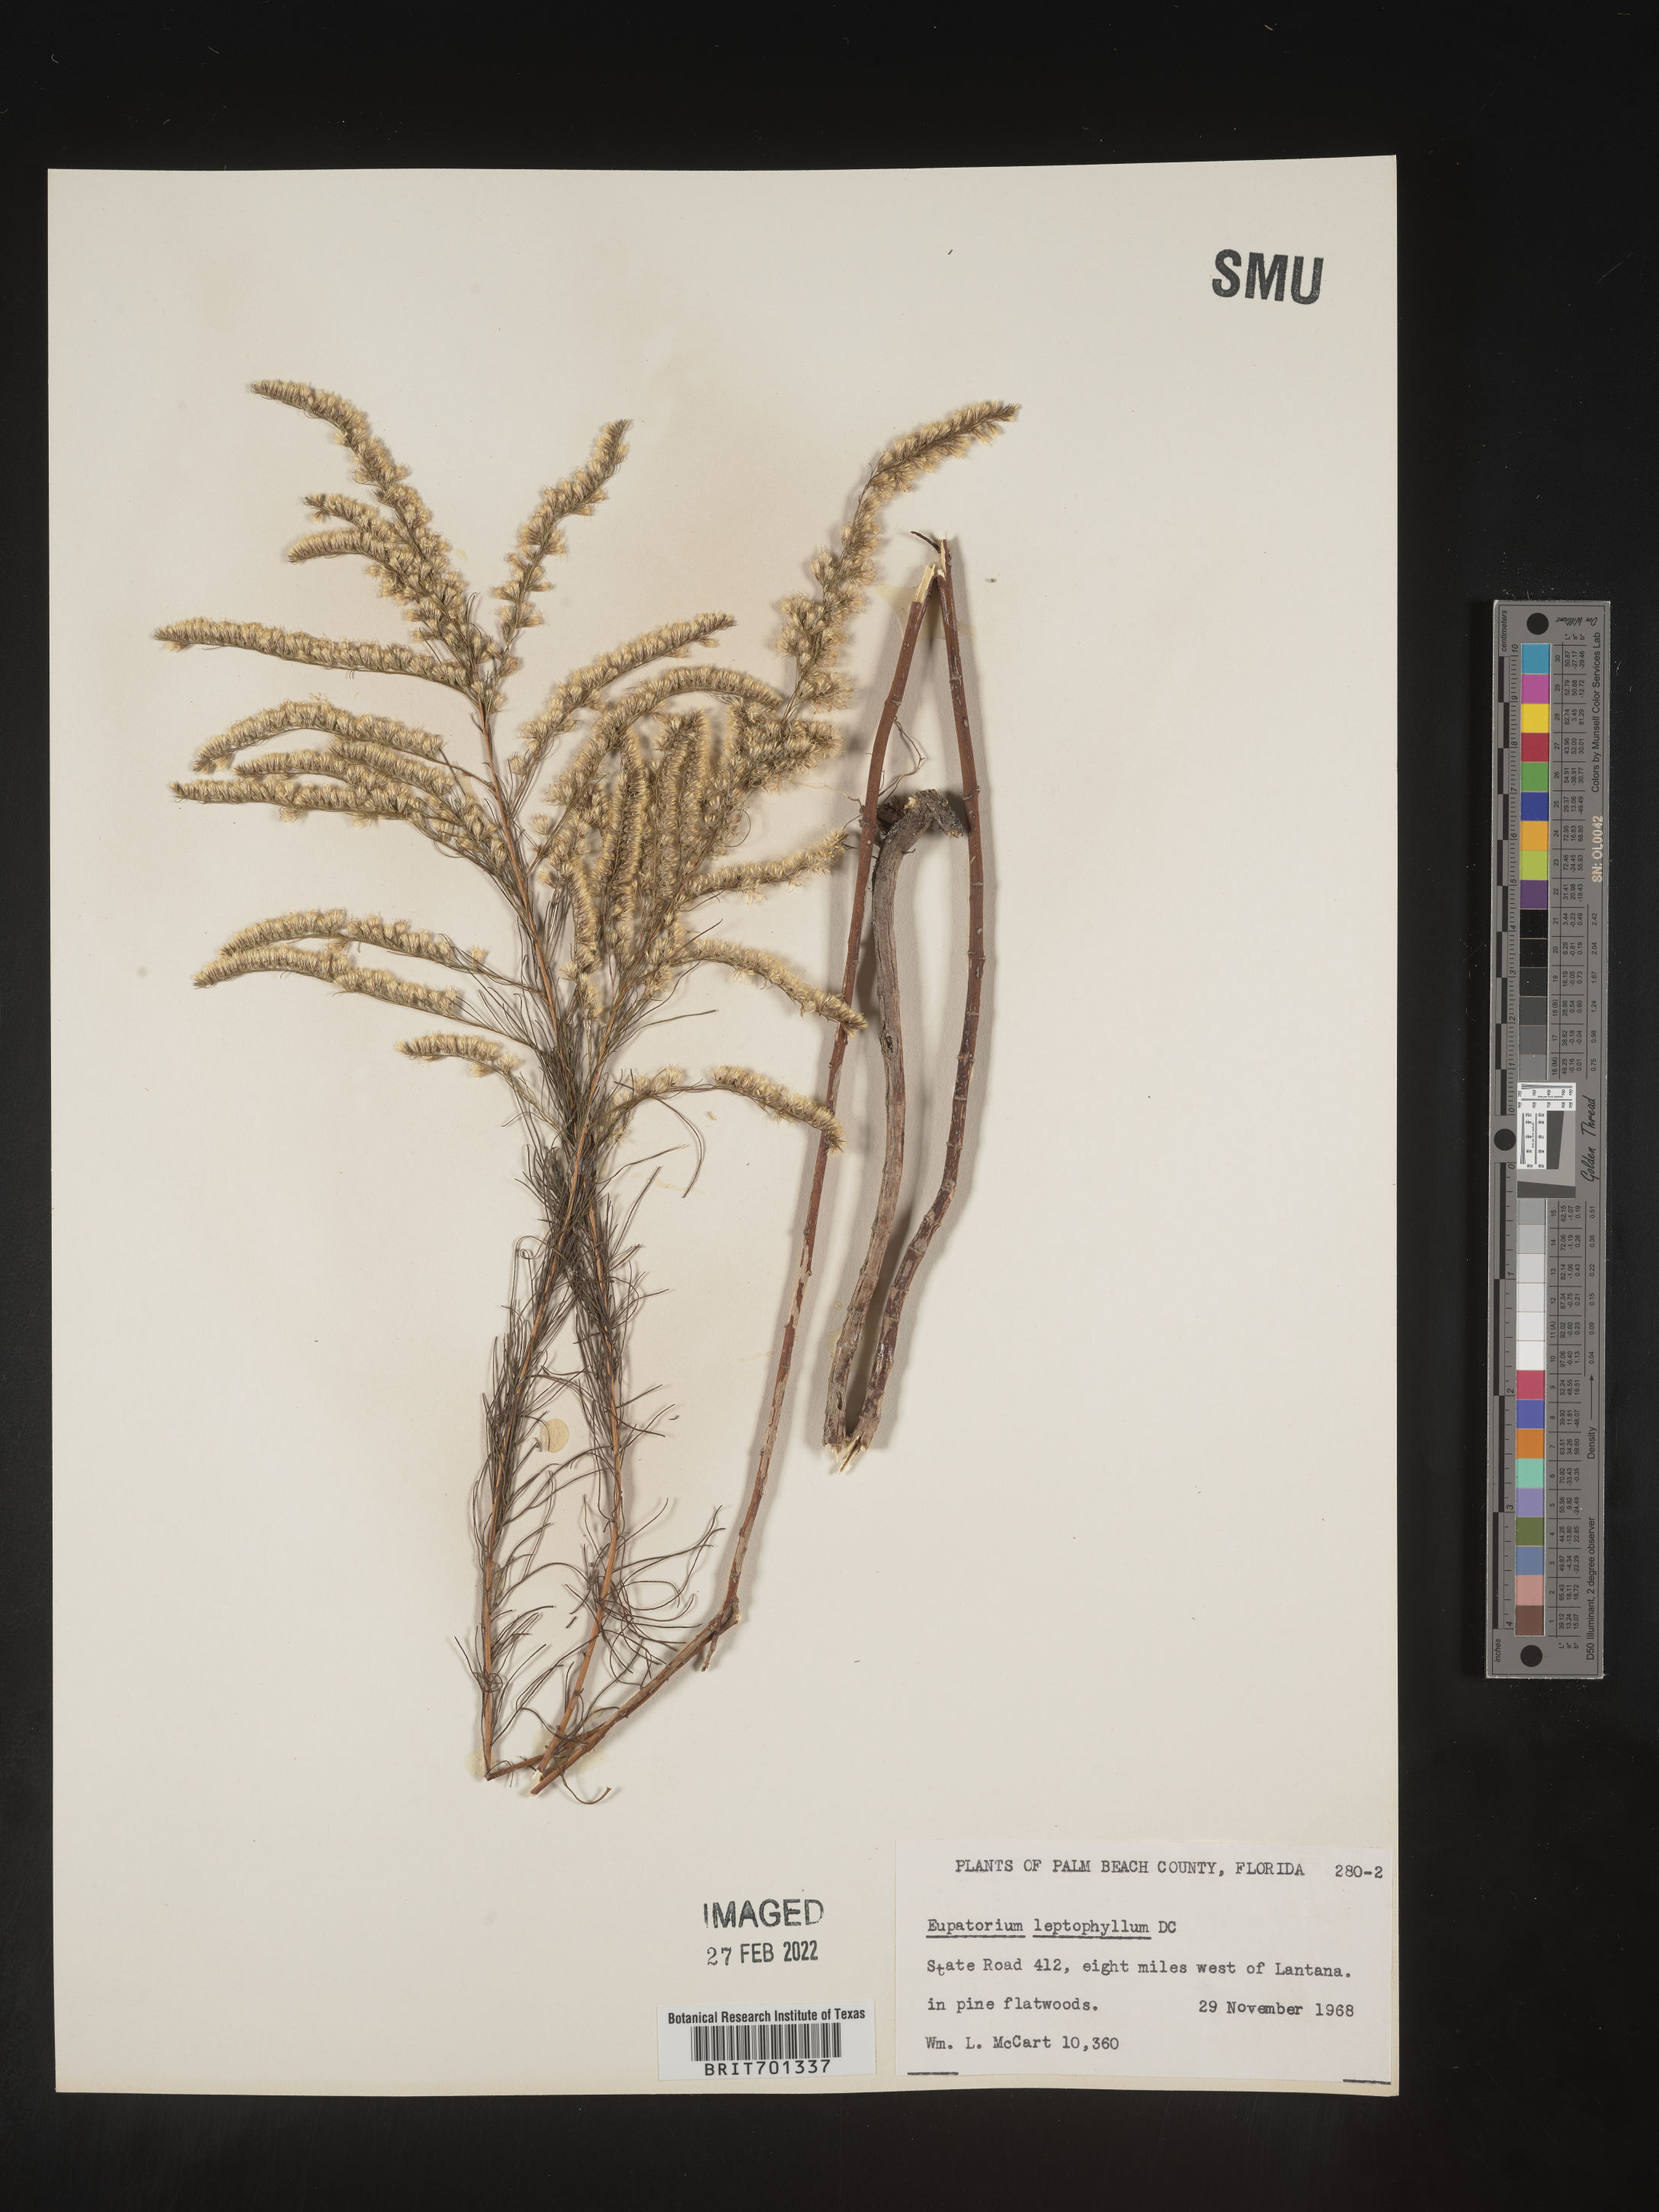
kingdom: Plantae
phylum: Tracheophyta
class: Magnoliopsida
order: Asterales
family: Asteraceae
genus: Eupatorium
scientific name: Eupatorium leptophyllum
